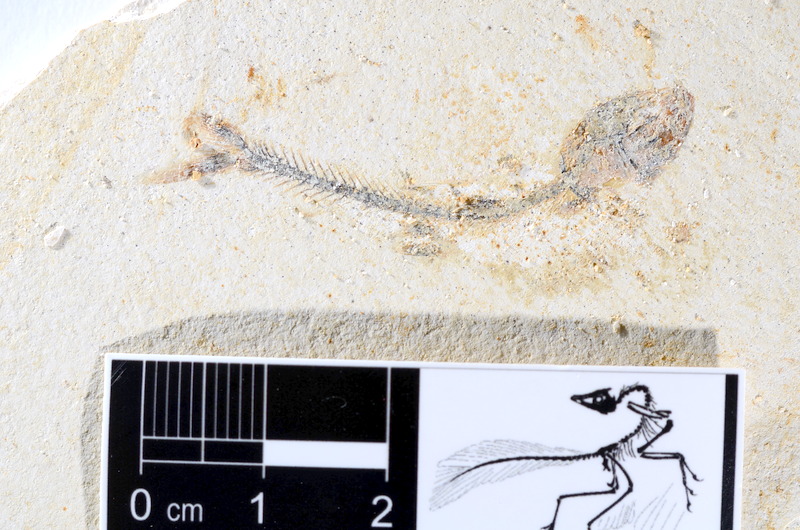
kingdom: Animalia
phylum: Chordata
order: Salmoniformes
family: Orthogonikleithridae
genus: Orthogonikleithrus
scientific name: Orthogonikleithrus hoelli
